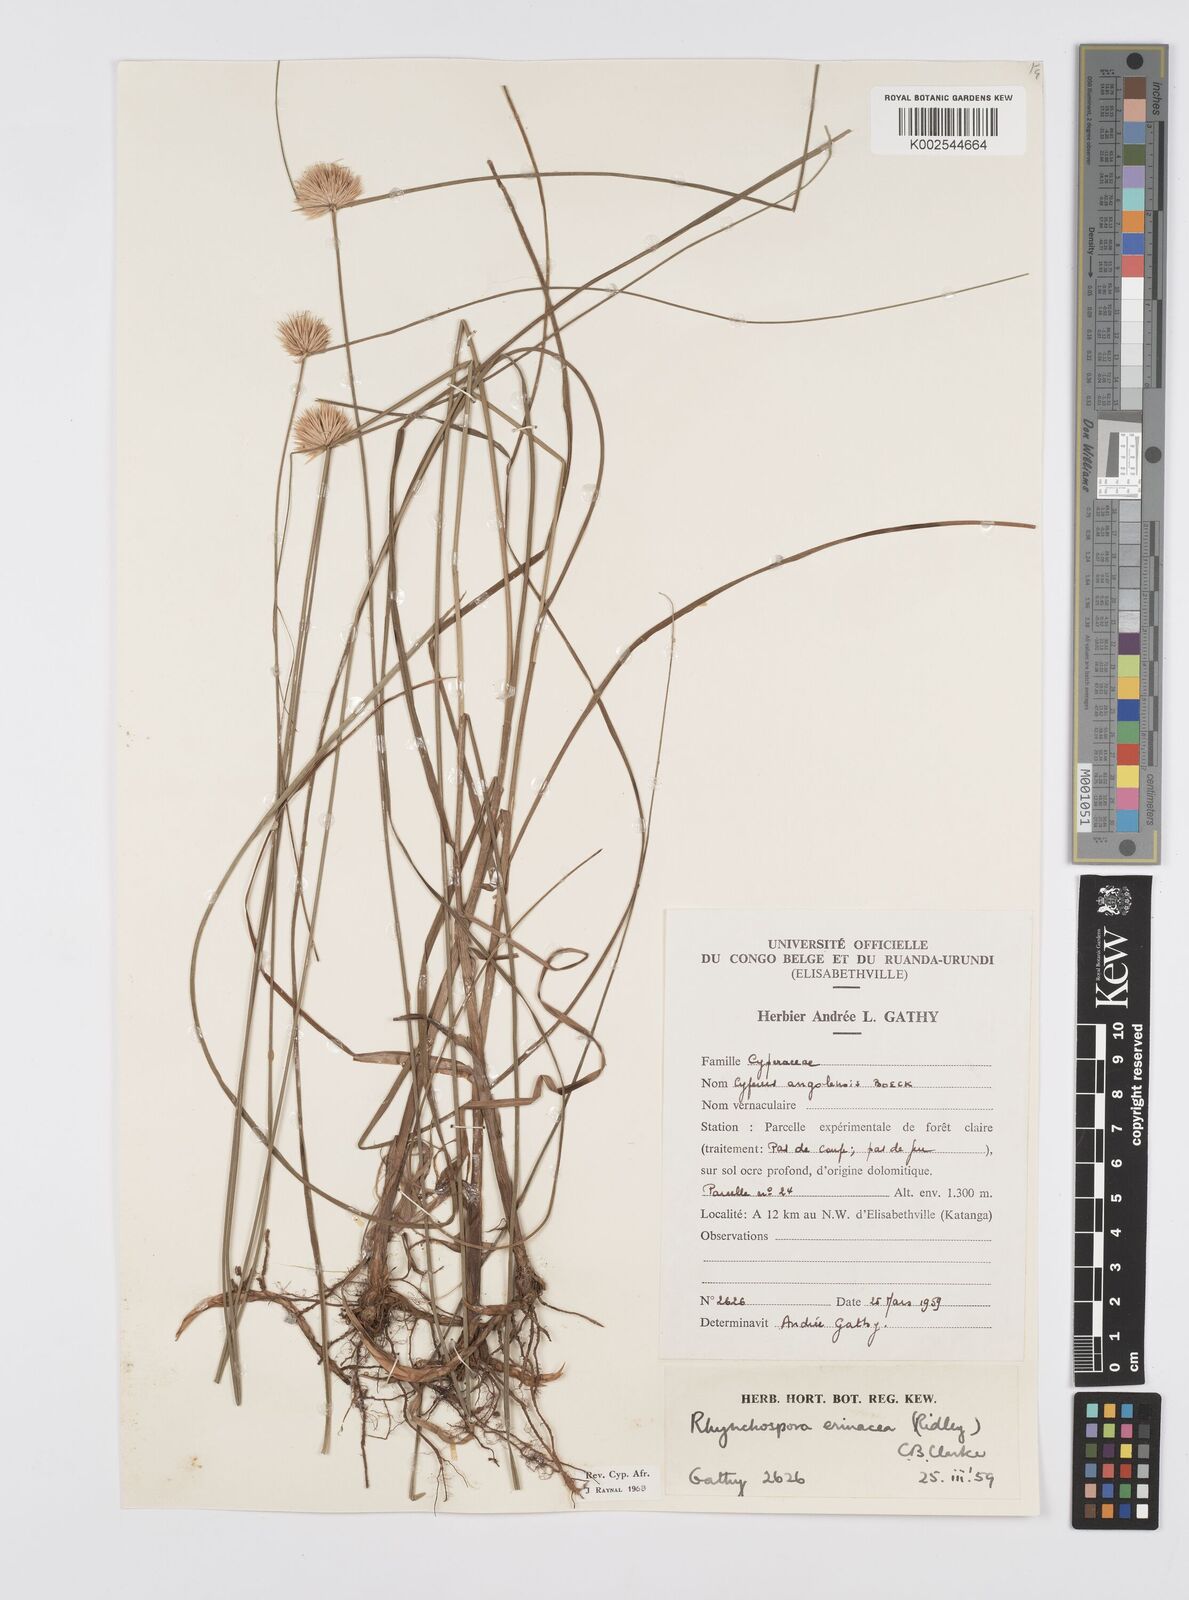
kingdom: Plantae
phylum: Tracheophyta
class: Liliopsida
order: Poales
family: Cyperaceae
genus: Cyperus
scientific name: Cyperus erinaceus
